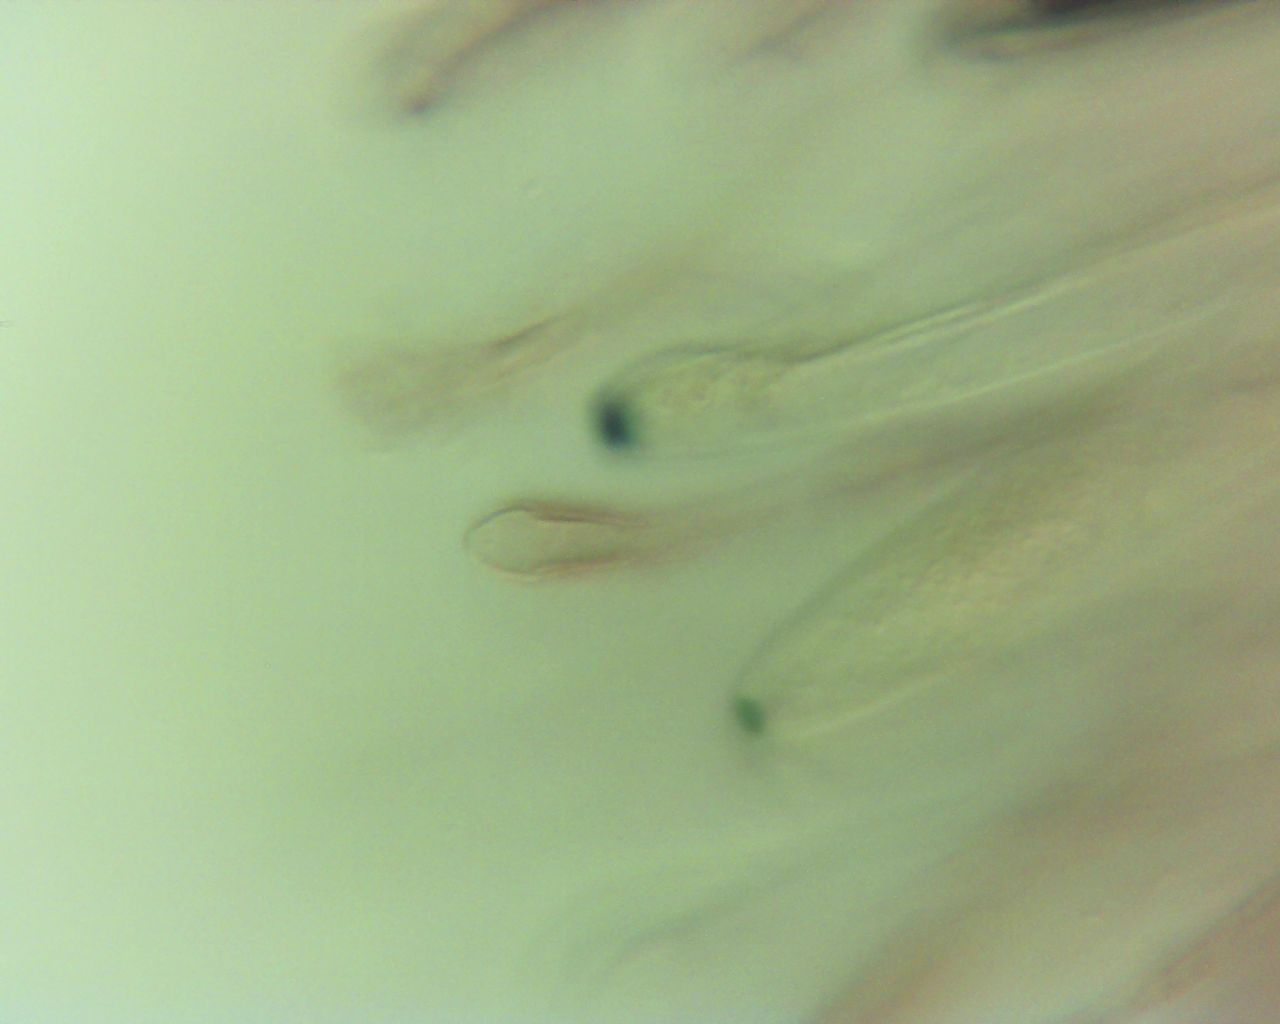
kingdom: Fungi
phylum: Ascomycota
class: Geoglossomycetes
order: Geoglossales
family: Geoglossaceae
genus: Glutinoglossum
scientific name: Glutinoglossum glutinosum
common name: slimet jordtunge
